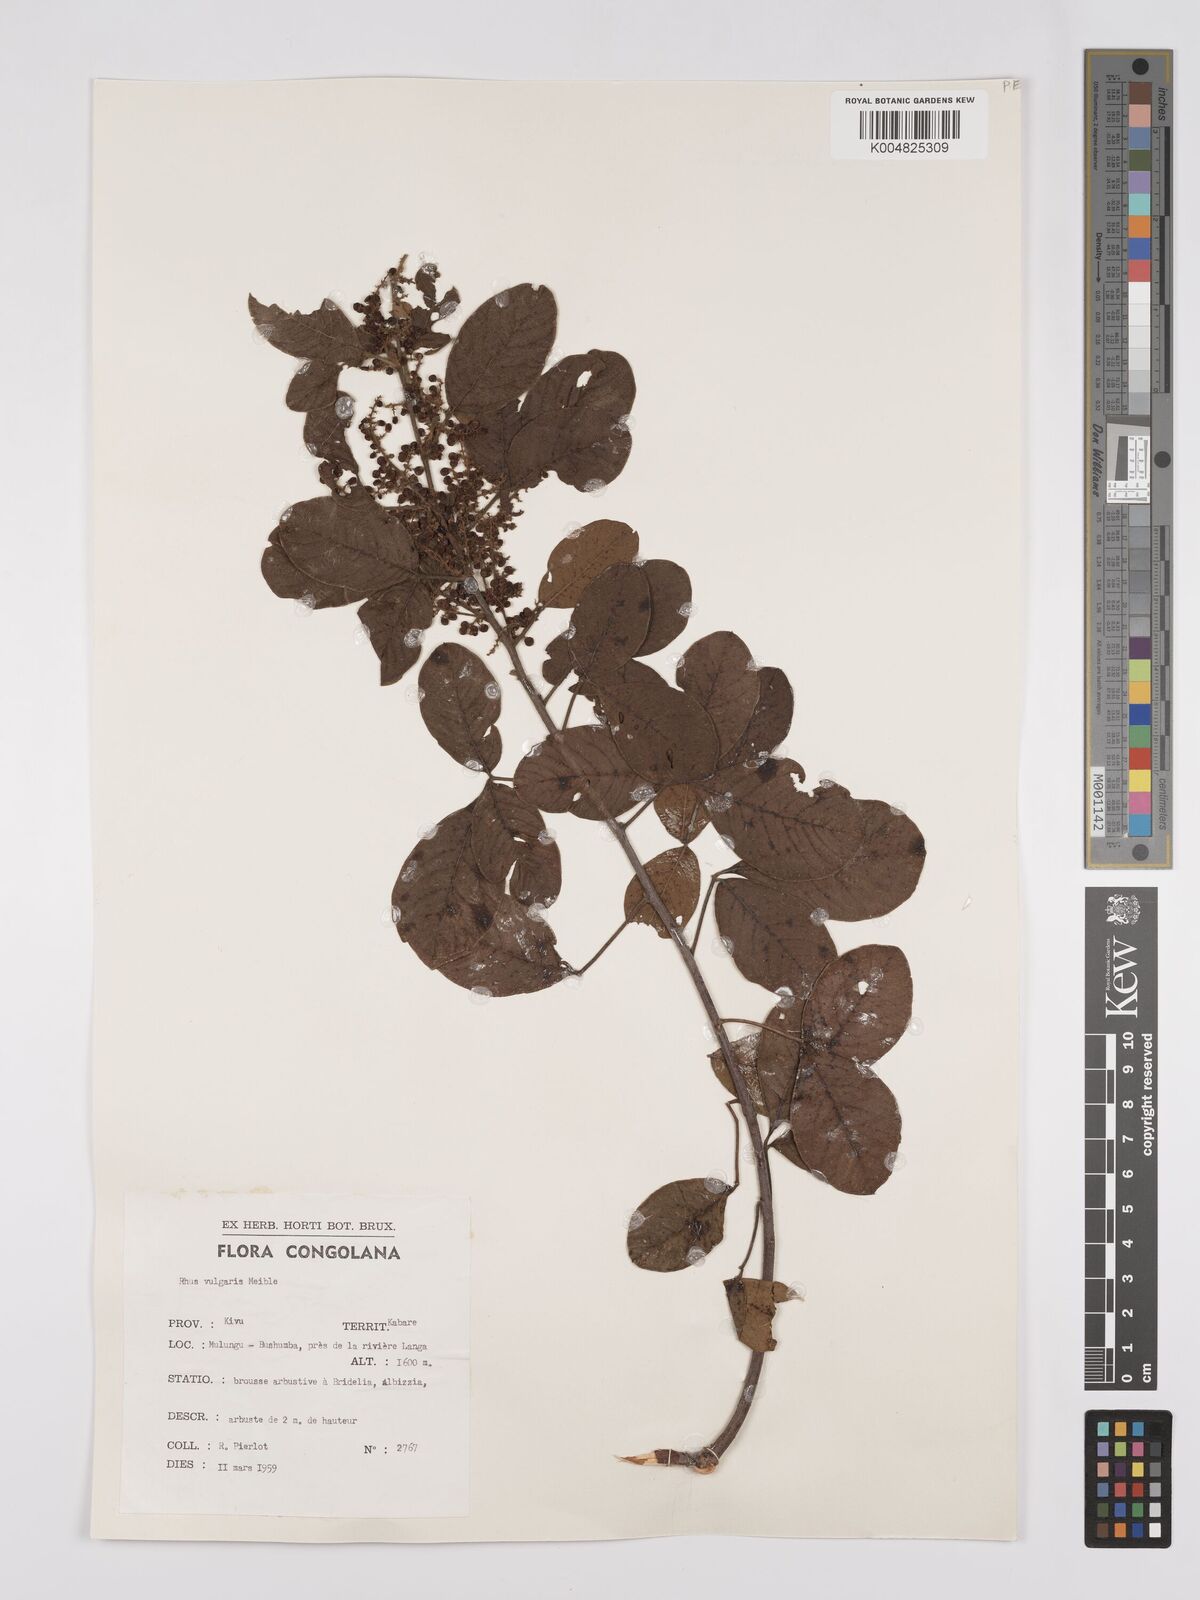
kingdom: Plantae
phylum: Tracheophyta
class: Magnoliopsida
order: Sapindales
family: Anacardiaceae
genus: Searsia
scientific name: Searsia pyroides
